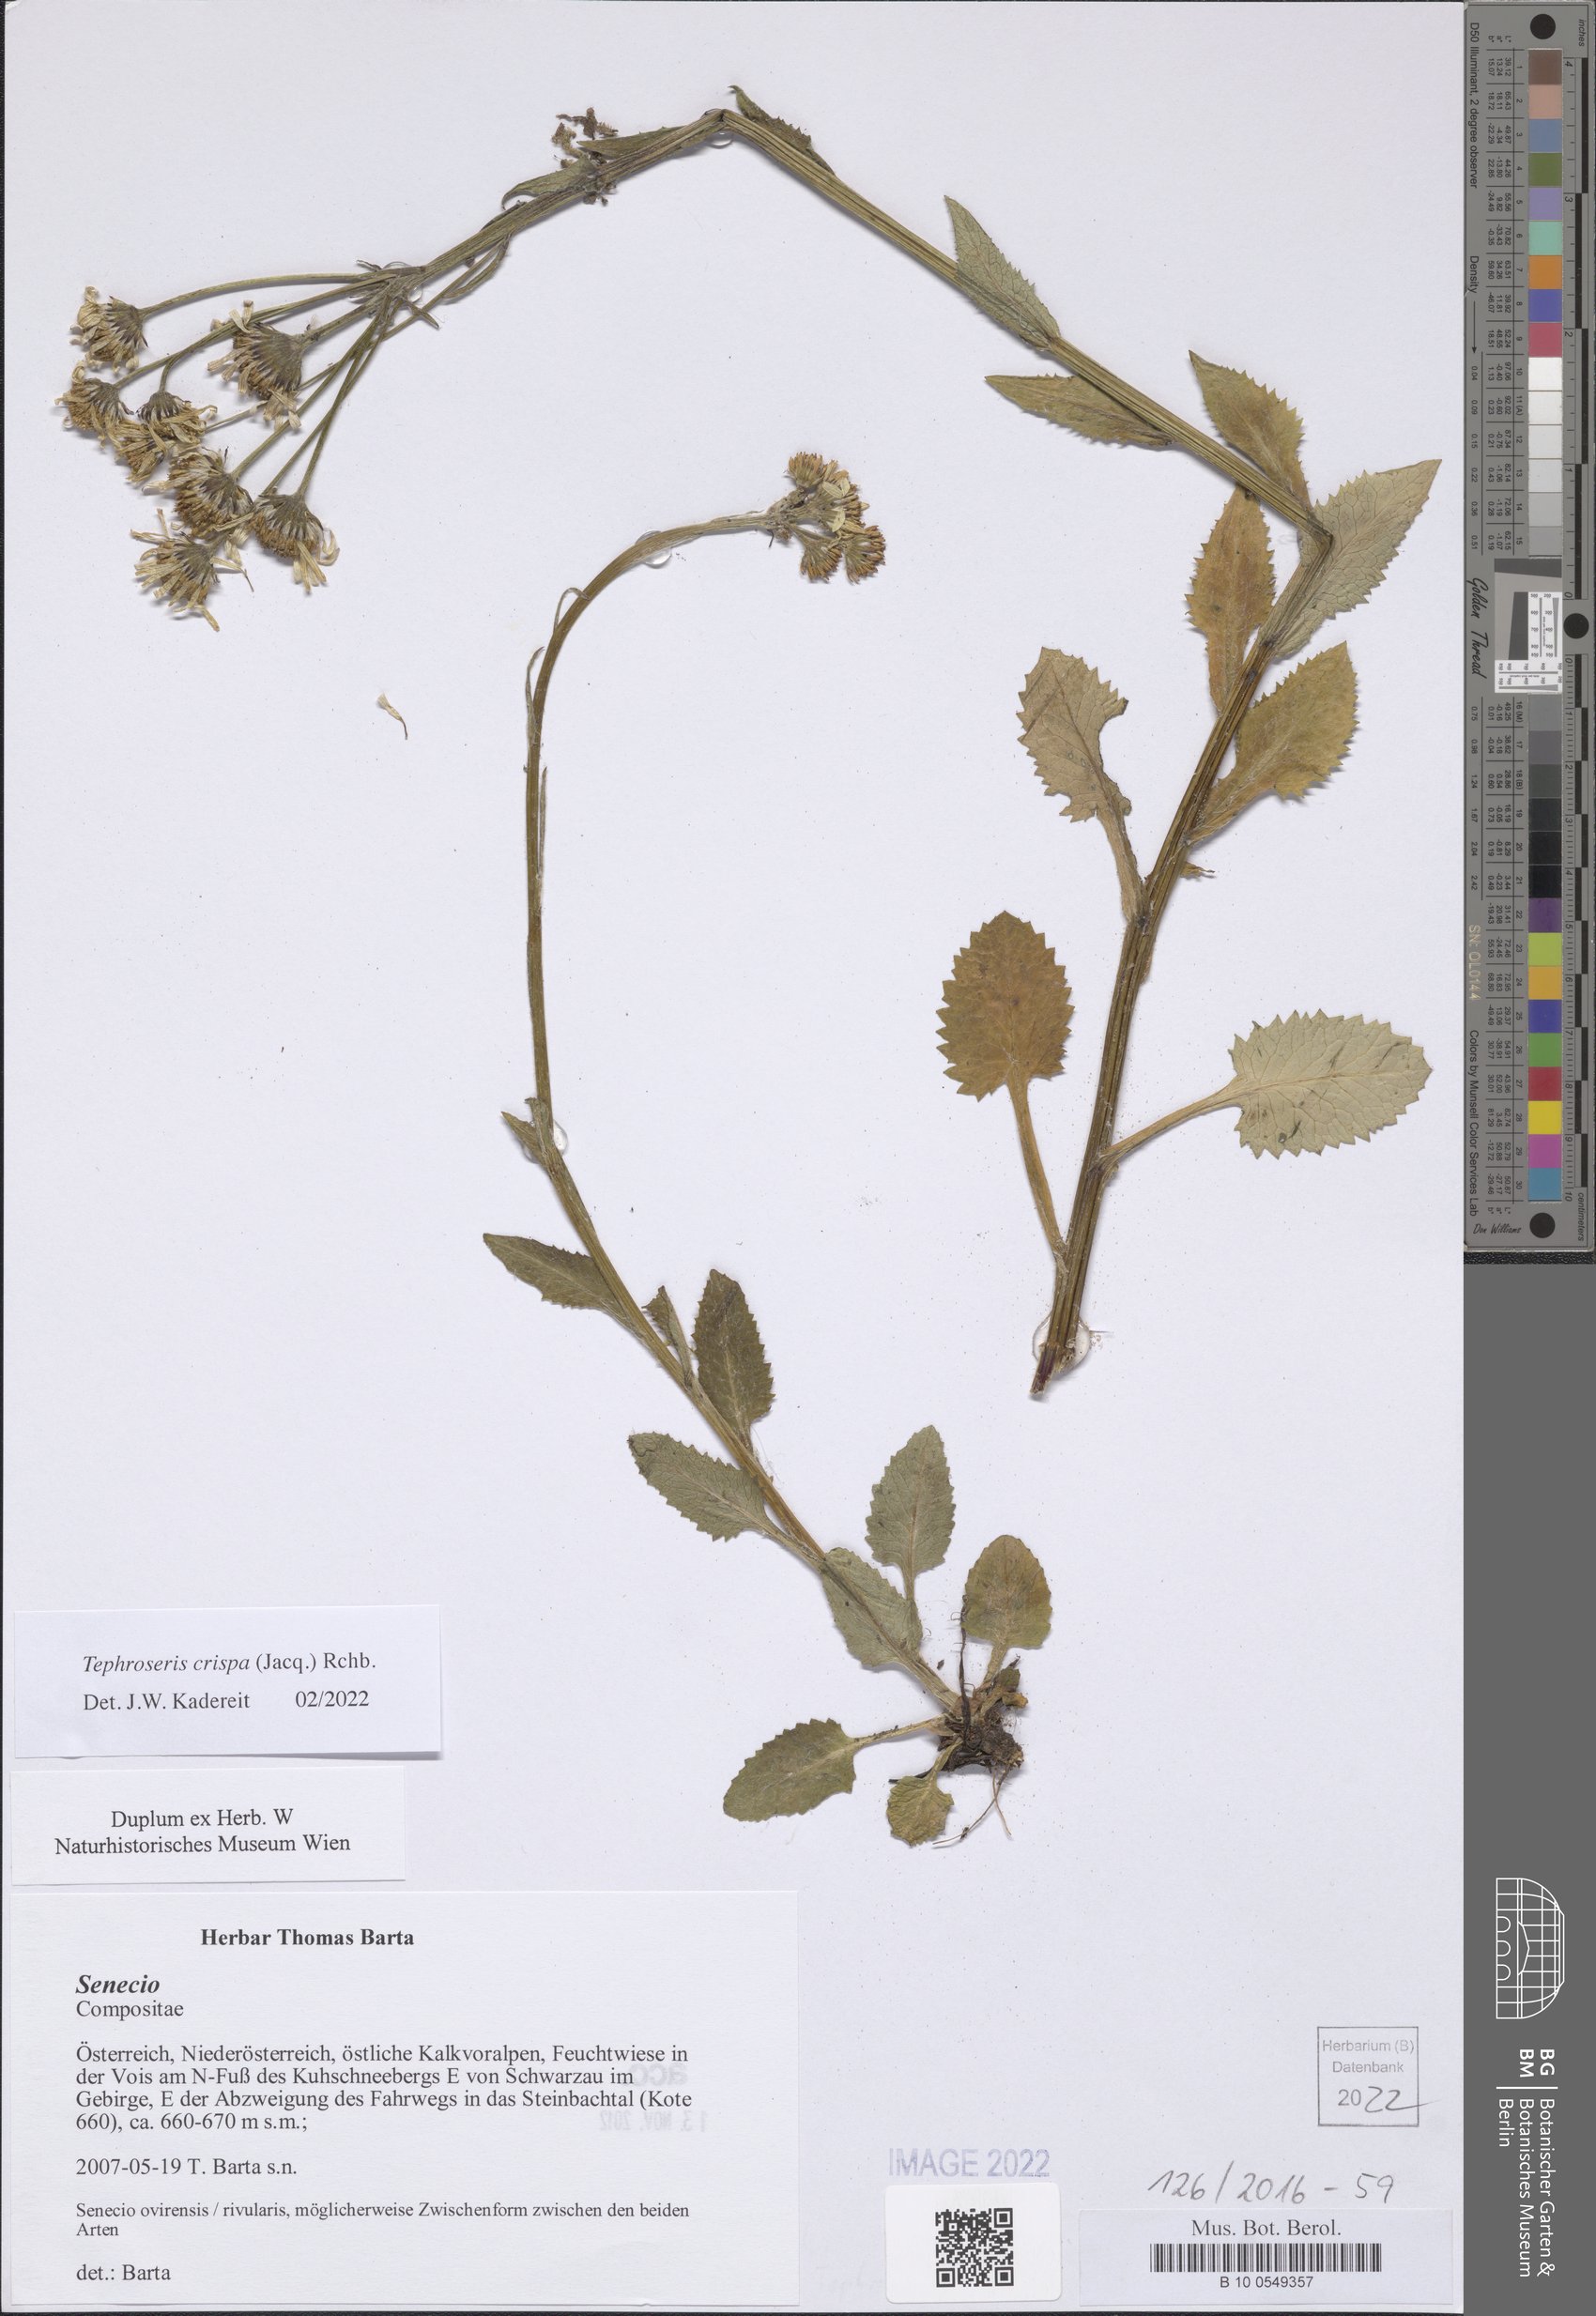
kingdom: Plantae
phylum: Tracheophyta
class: Magnoliopsida
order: Asterales
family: Asteraceae
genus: Tephroseris
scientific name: Tephroseris crispa
